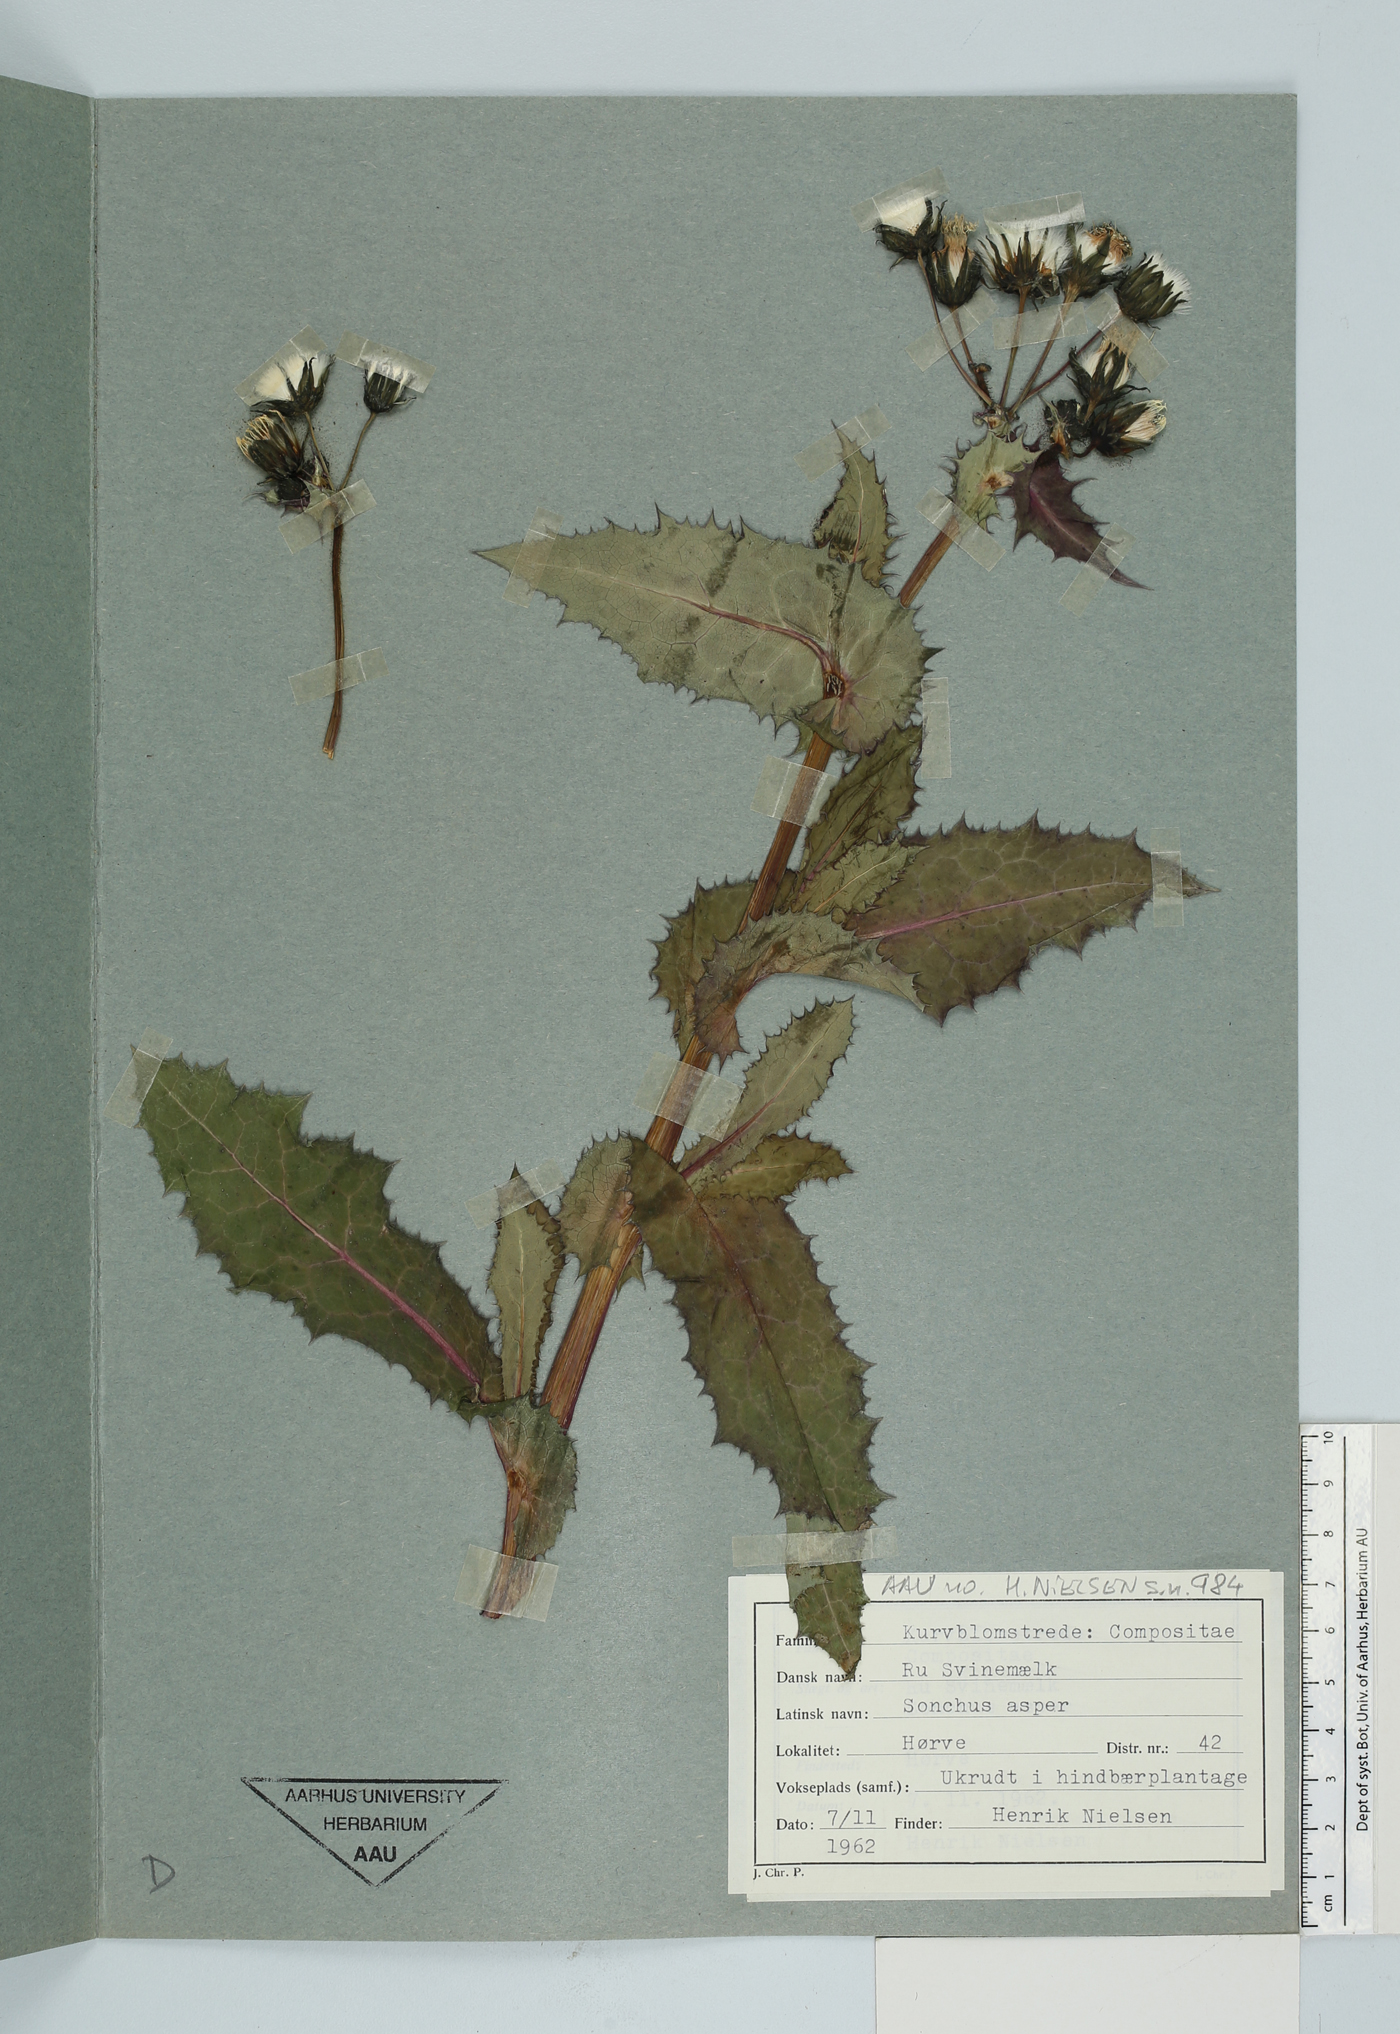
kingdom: Plantae
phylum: Tracheophyta
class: Magnoliopsida
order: Asterales
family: Asteraceae
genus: Sonchus
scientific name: Sonchus asper
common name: Prickly sow-thistle
